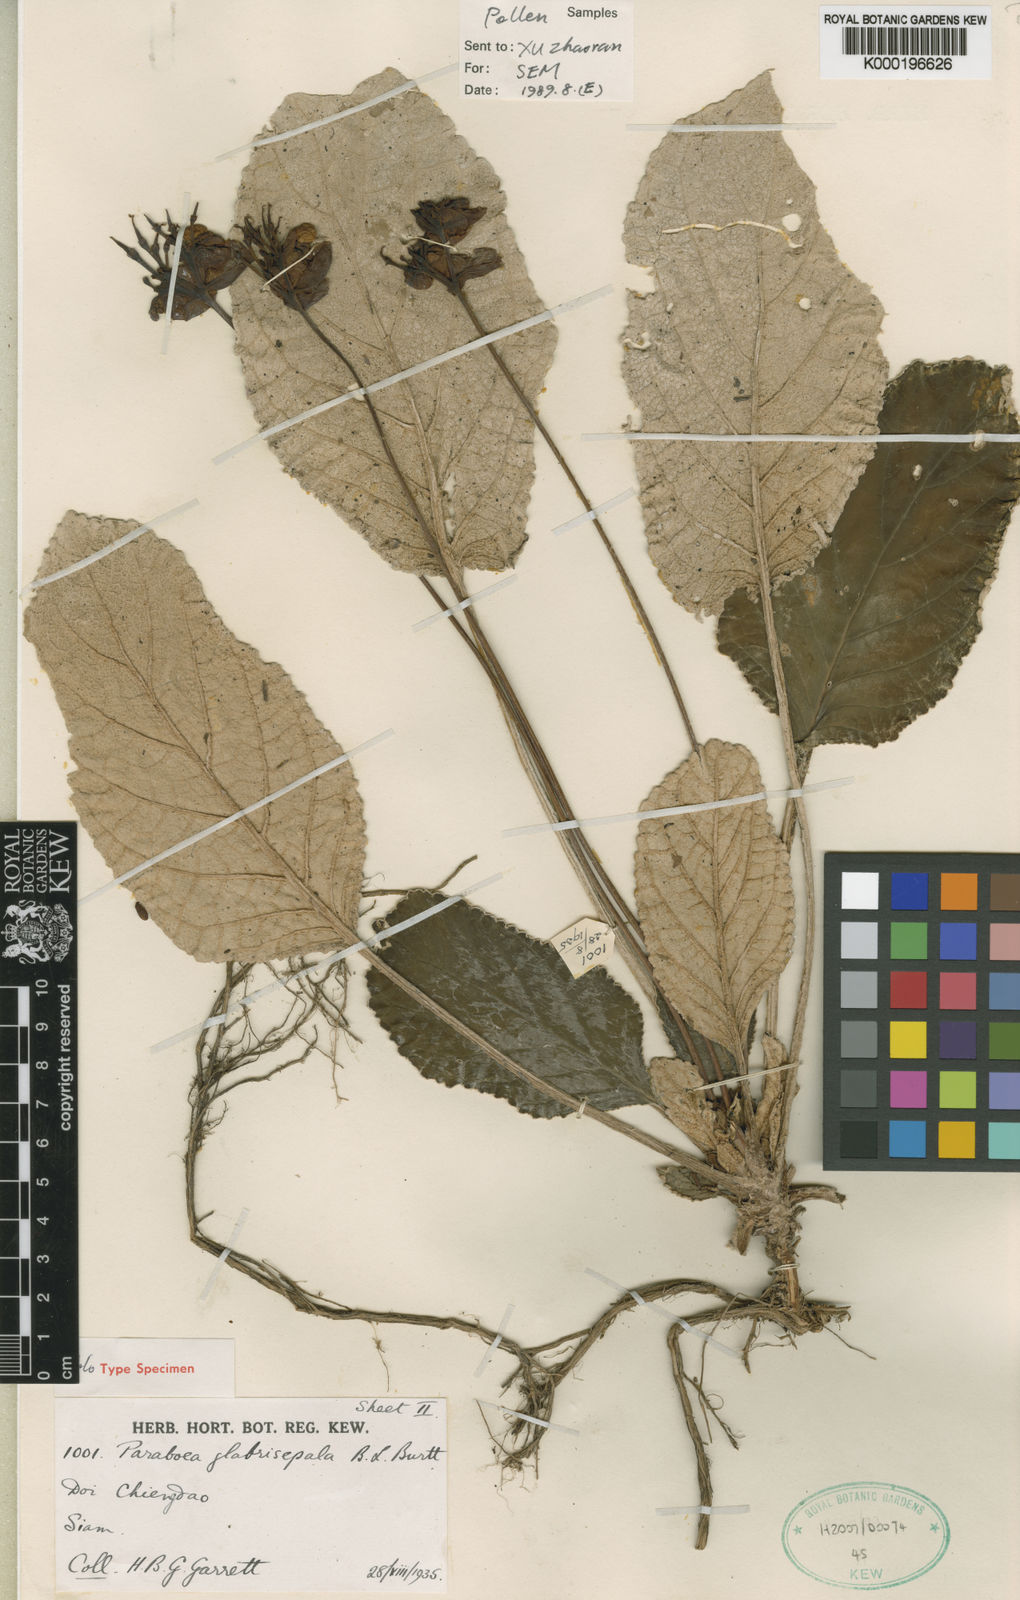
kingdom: Plantae
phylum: Tracheophyta
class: Magnoliopsida
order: Lamiales
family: Gesneriaceae
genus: Paraboea
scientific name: Paraboea glabrisepala
